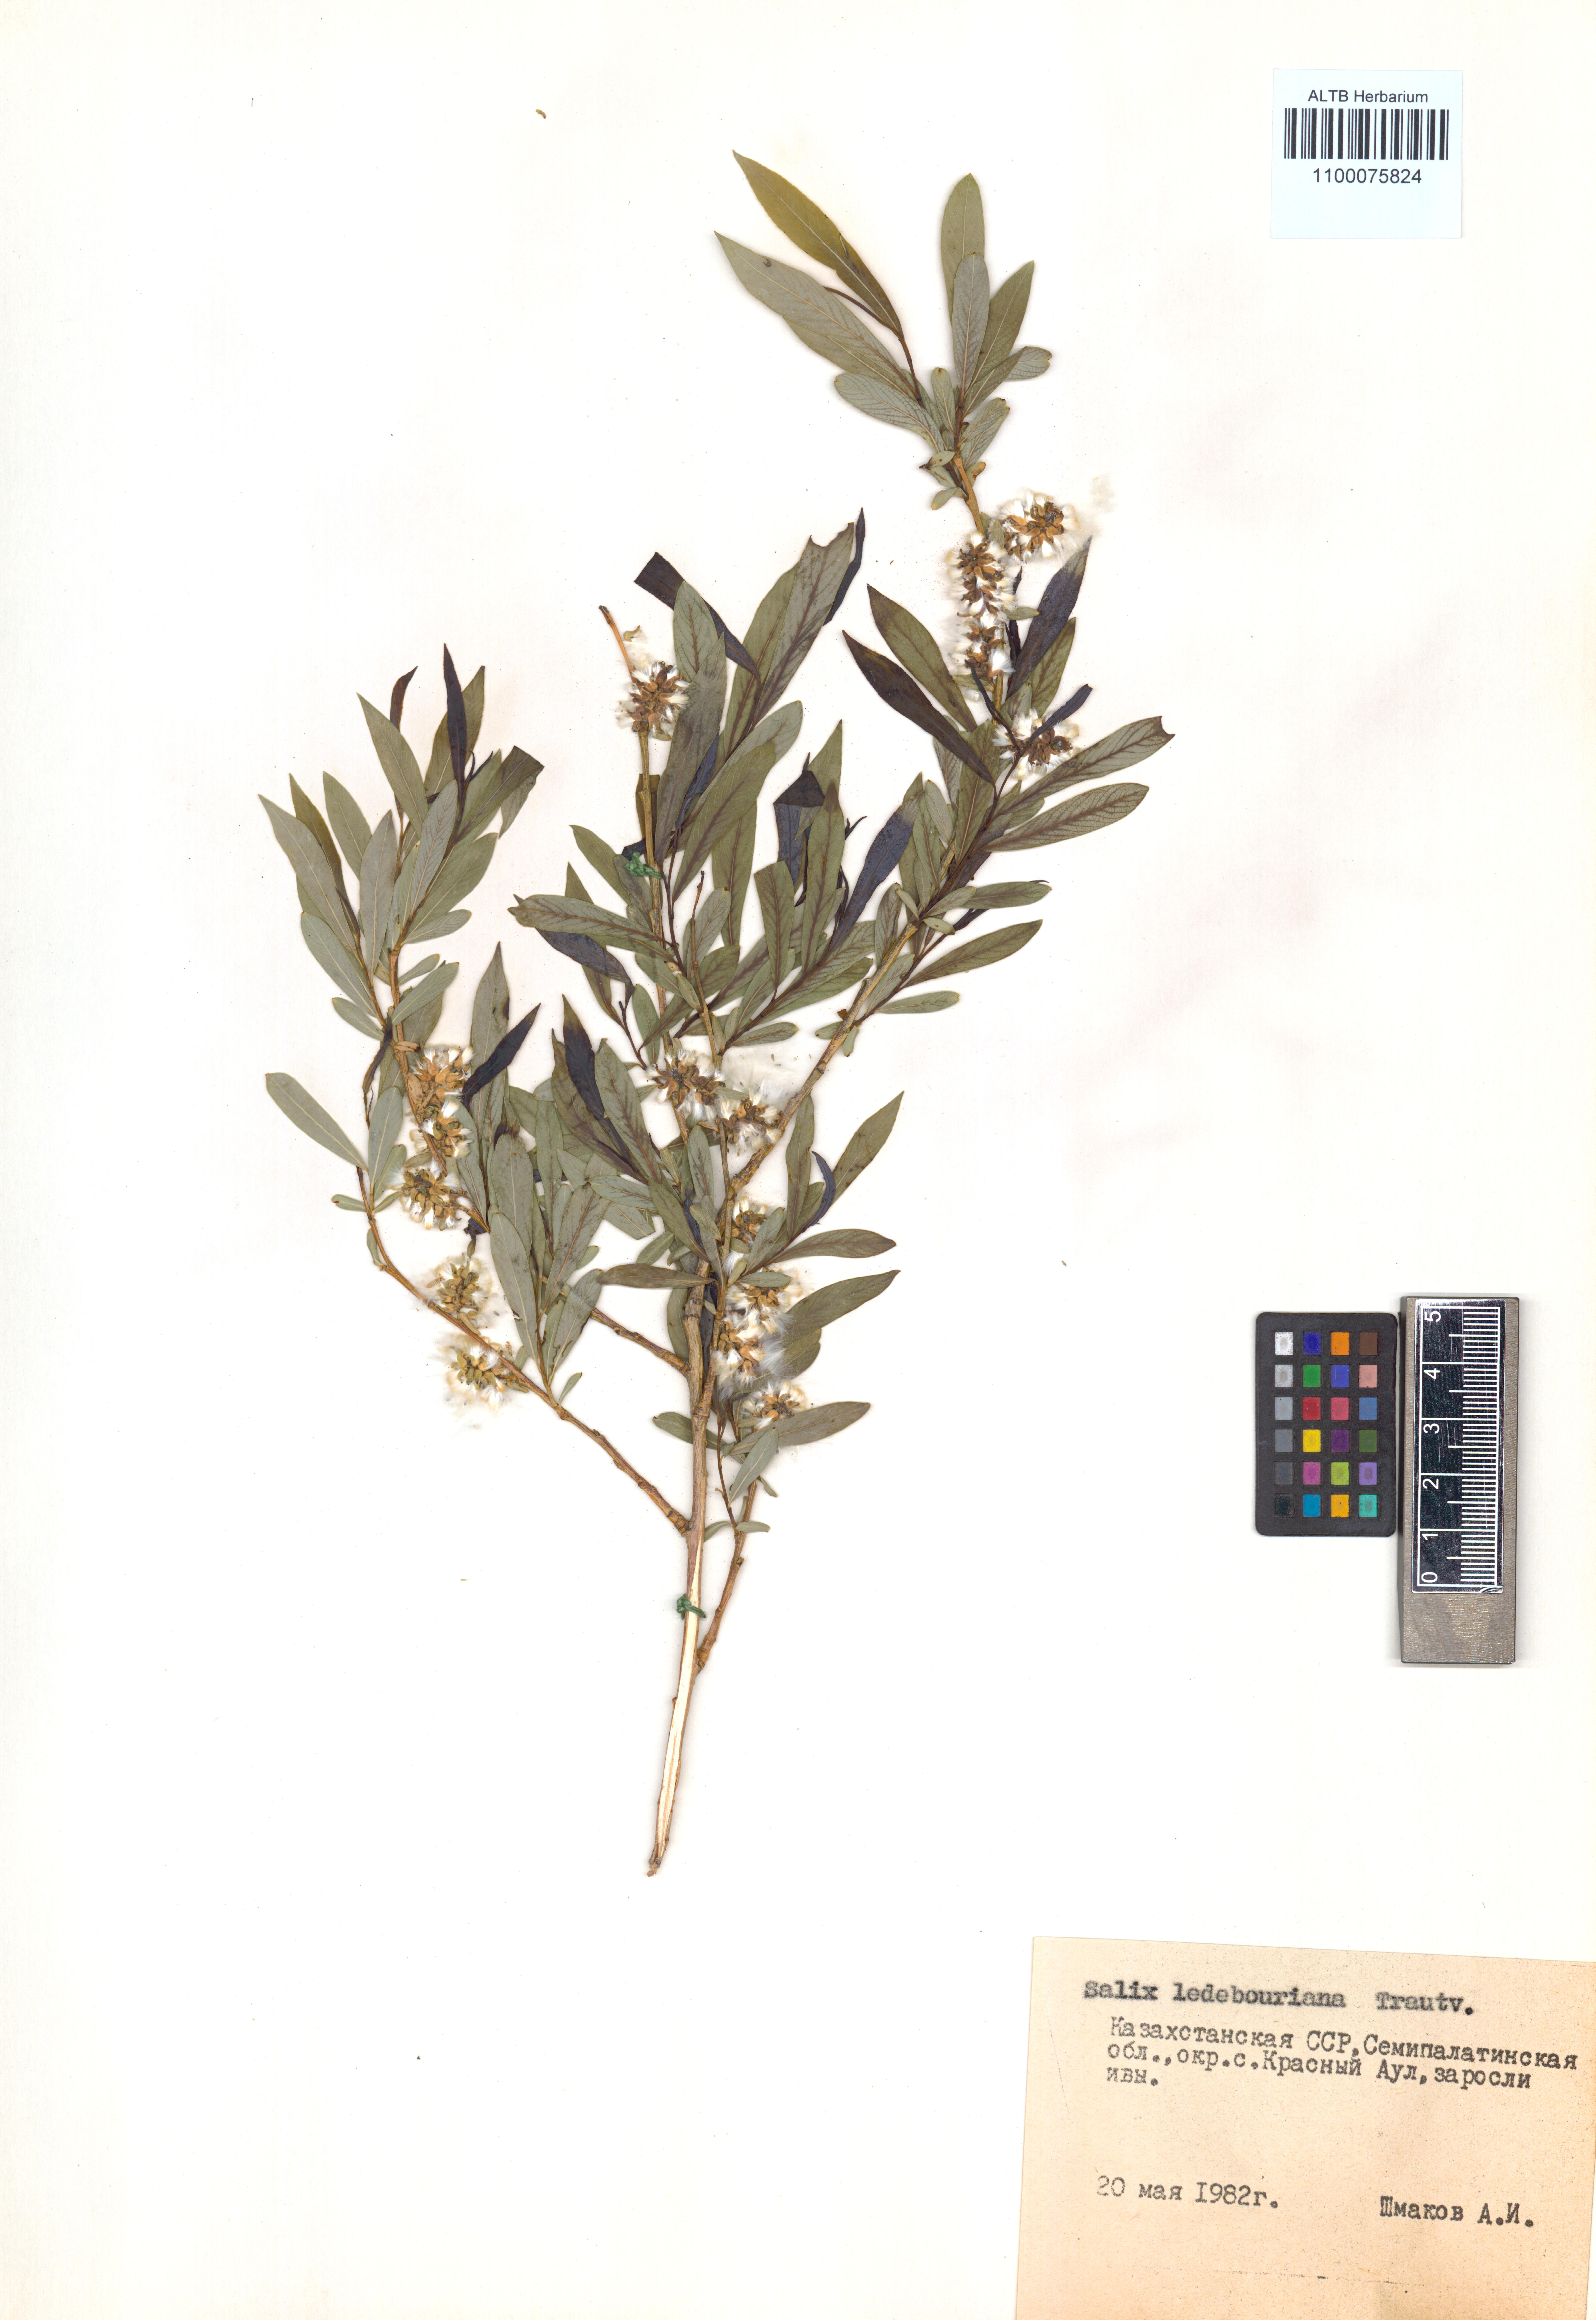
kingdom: Plantae
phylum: Tracheophyta
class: Magnoliopsida
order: Malpighiales
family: Salicaceae
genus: Salix
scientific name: Salix ledebouriana
